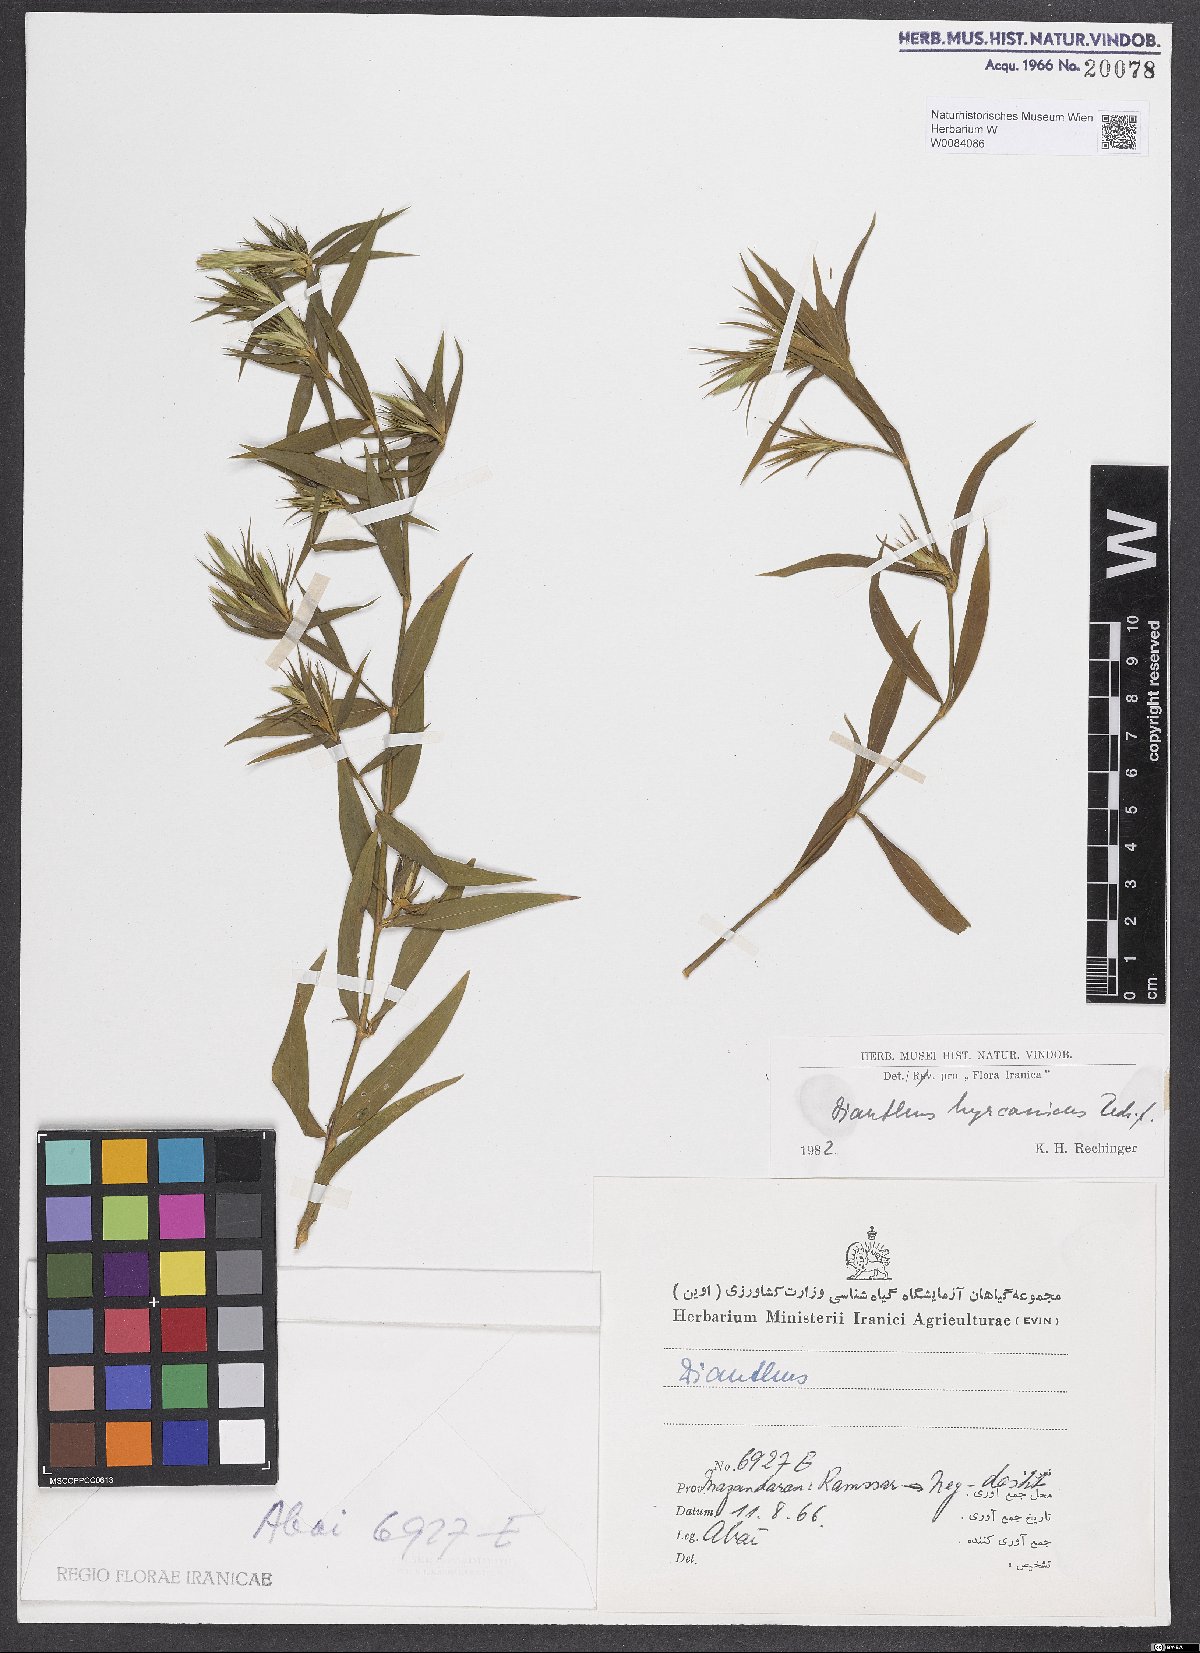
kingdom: Plantae
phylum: Tracheophyta
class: Magnoliopsida
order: Caryophyllales
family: Caryophyllaceae
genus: Dianthus
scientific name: Dianthus hyrcanicus
